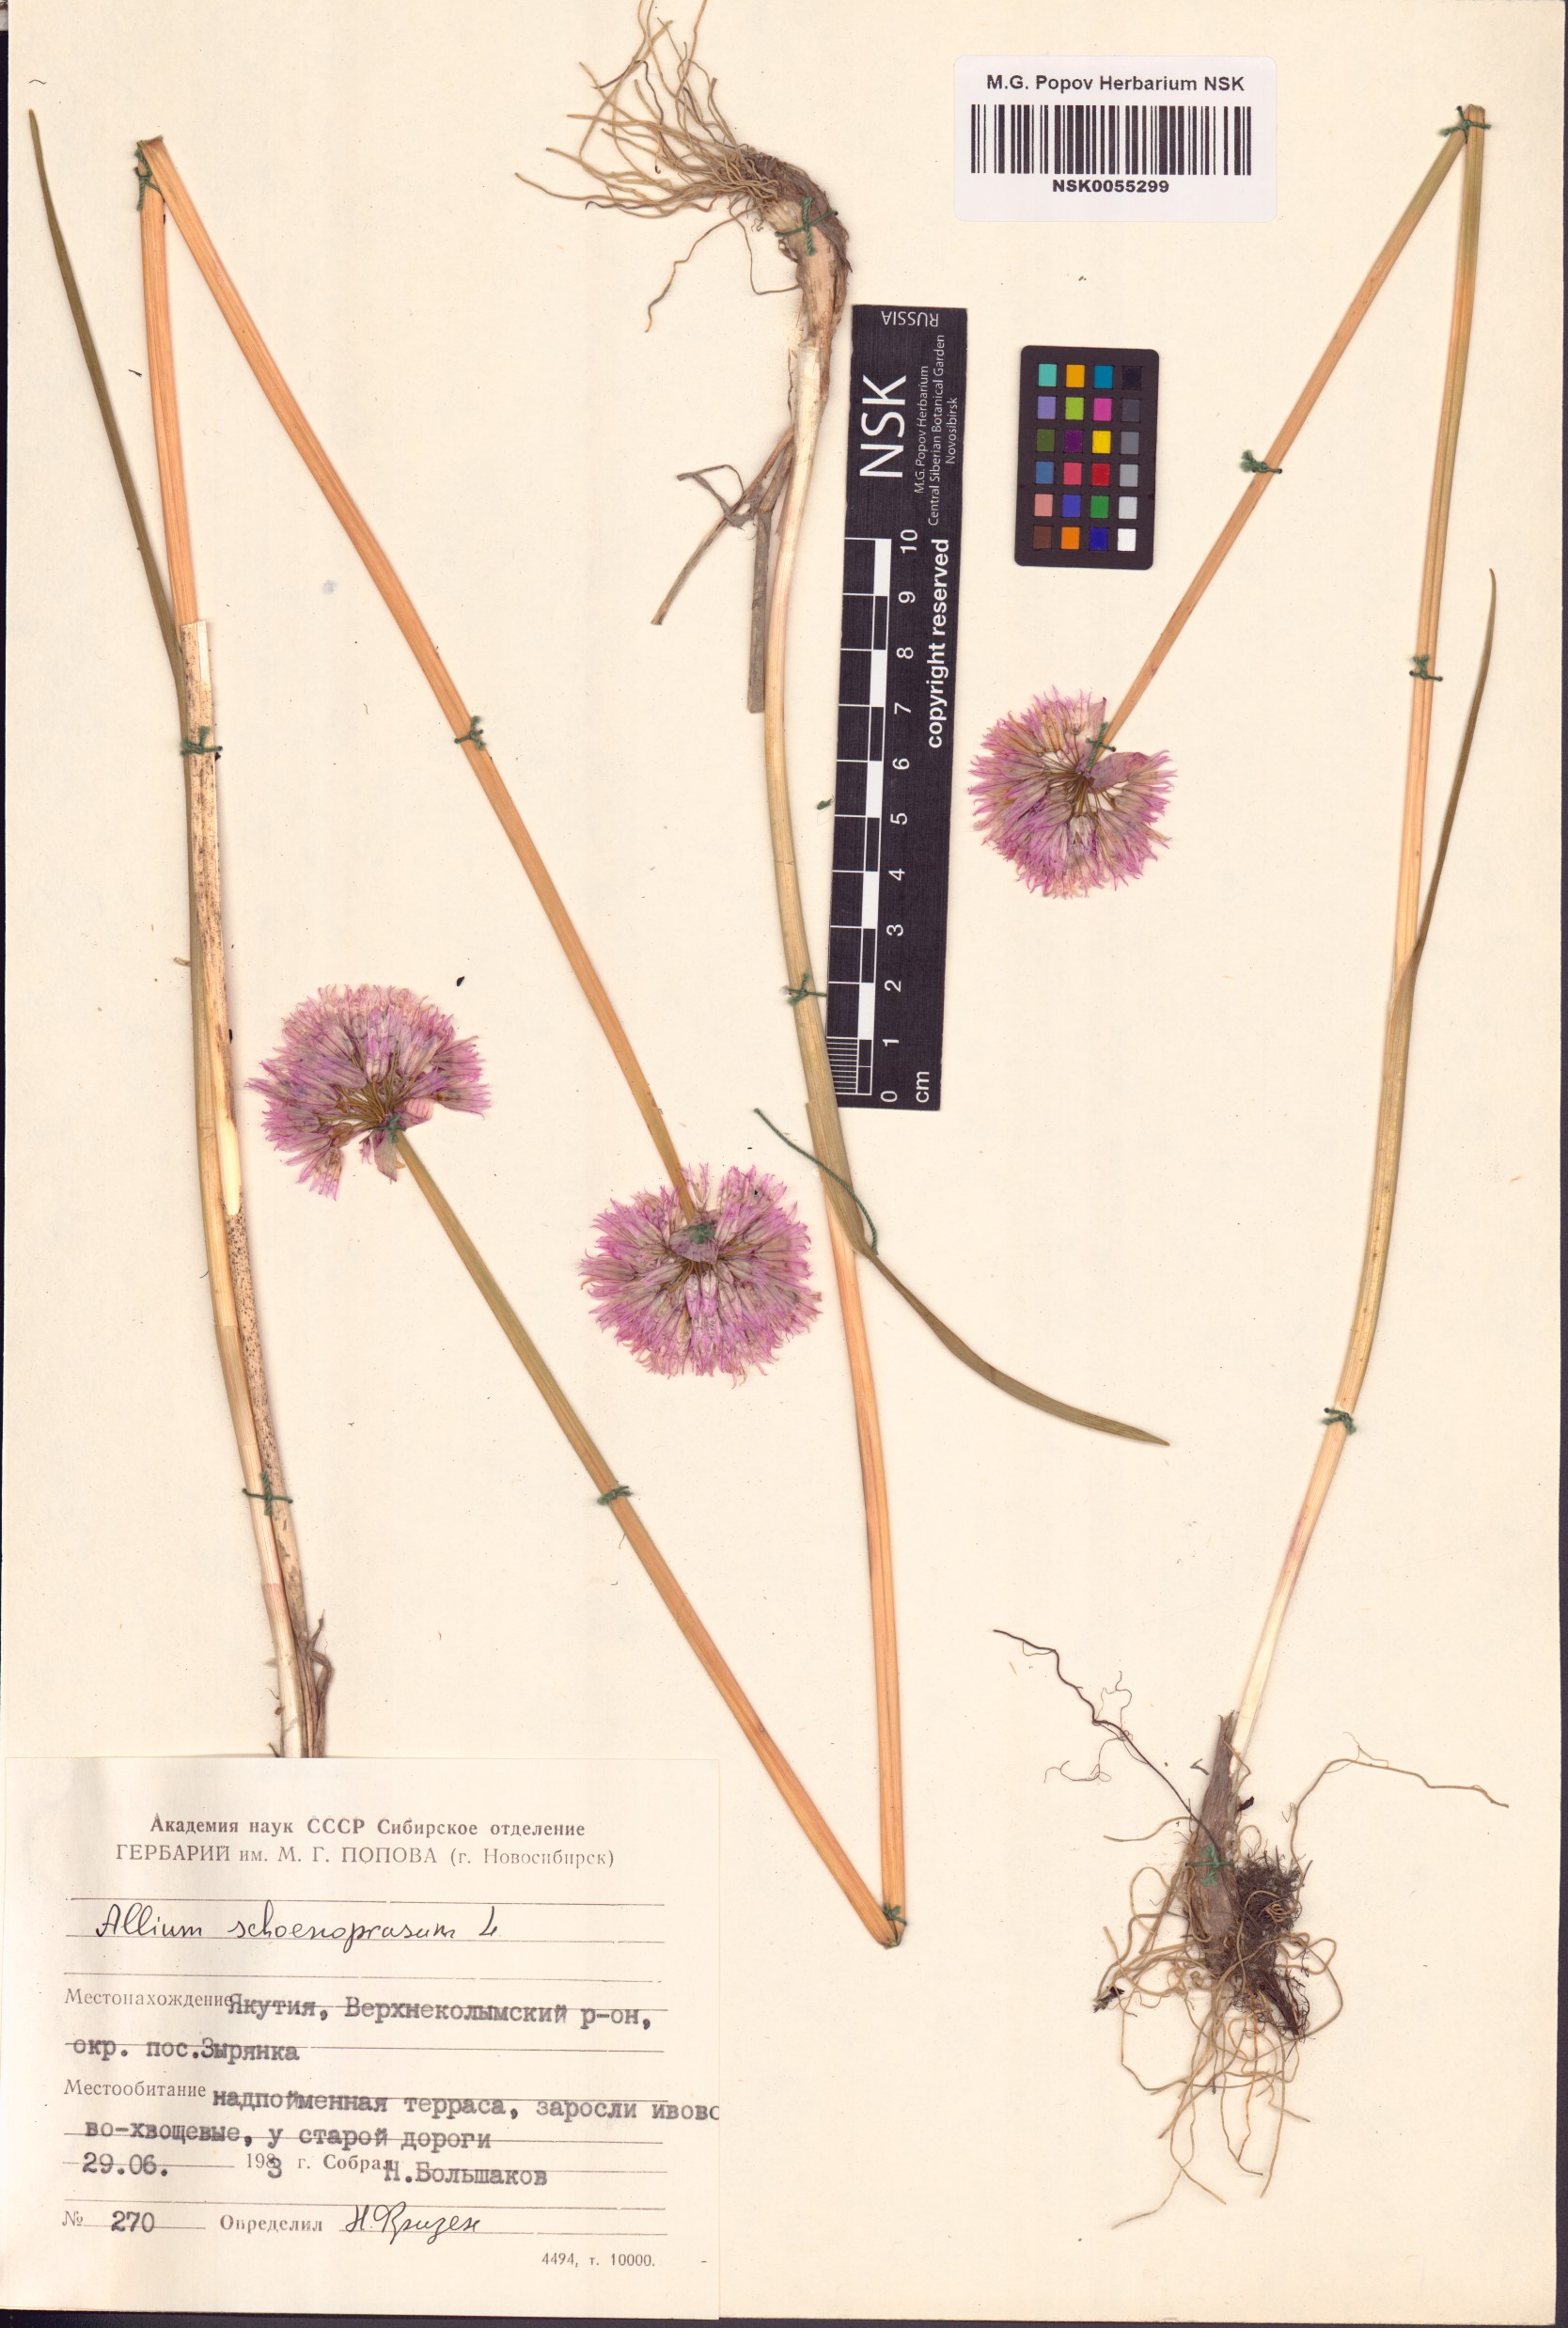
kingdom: Plantae
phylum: Tracheophyta
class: Liliopsida
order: Asparagales
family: Amaryllidaceae
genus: Allium
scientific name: Allium schoenoprasum
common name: Chives
